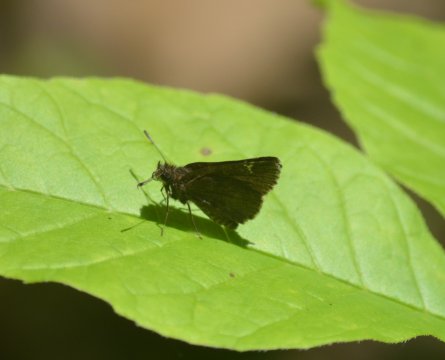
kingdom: Animalia
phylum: Arthropoda
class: Insecta
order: Lepidoptera
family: Hesperiidae
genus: Mastor
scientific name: Mastor vialis
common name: Common Roadside-Skipper
